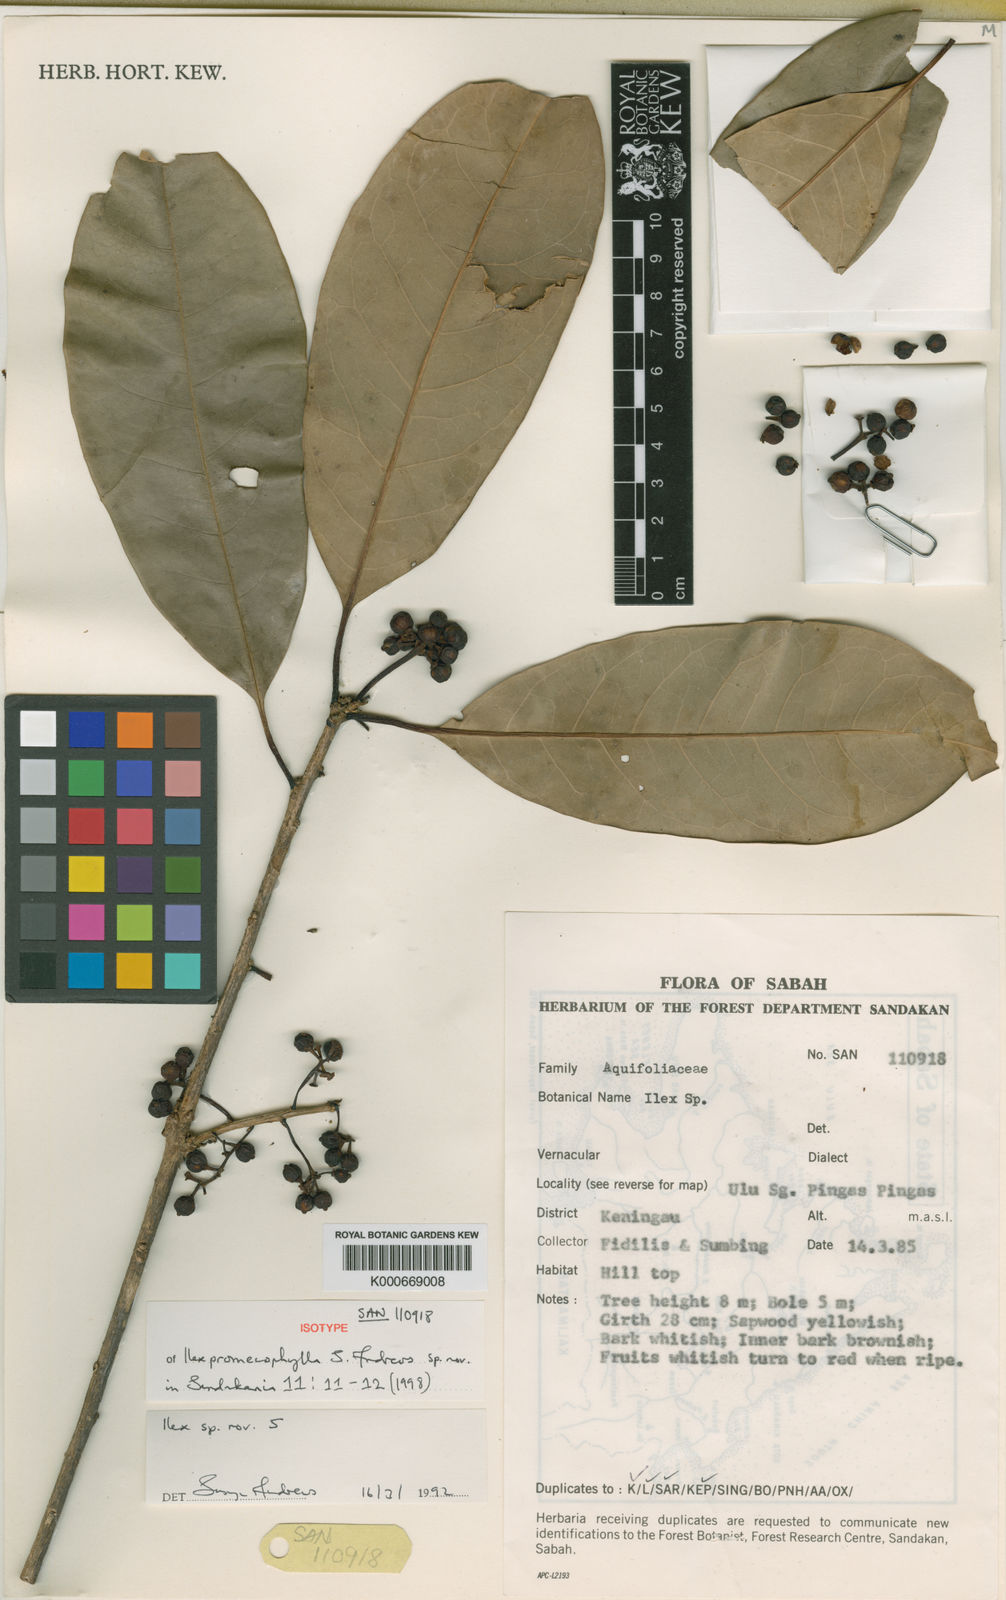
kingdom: Plantae
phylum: Tracheophyta
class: Magnoliopsida
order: Aquifoliales
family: Aquifoliaceae
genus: Ilex
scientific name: Ilex promecophylla
